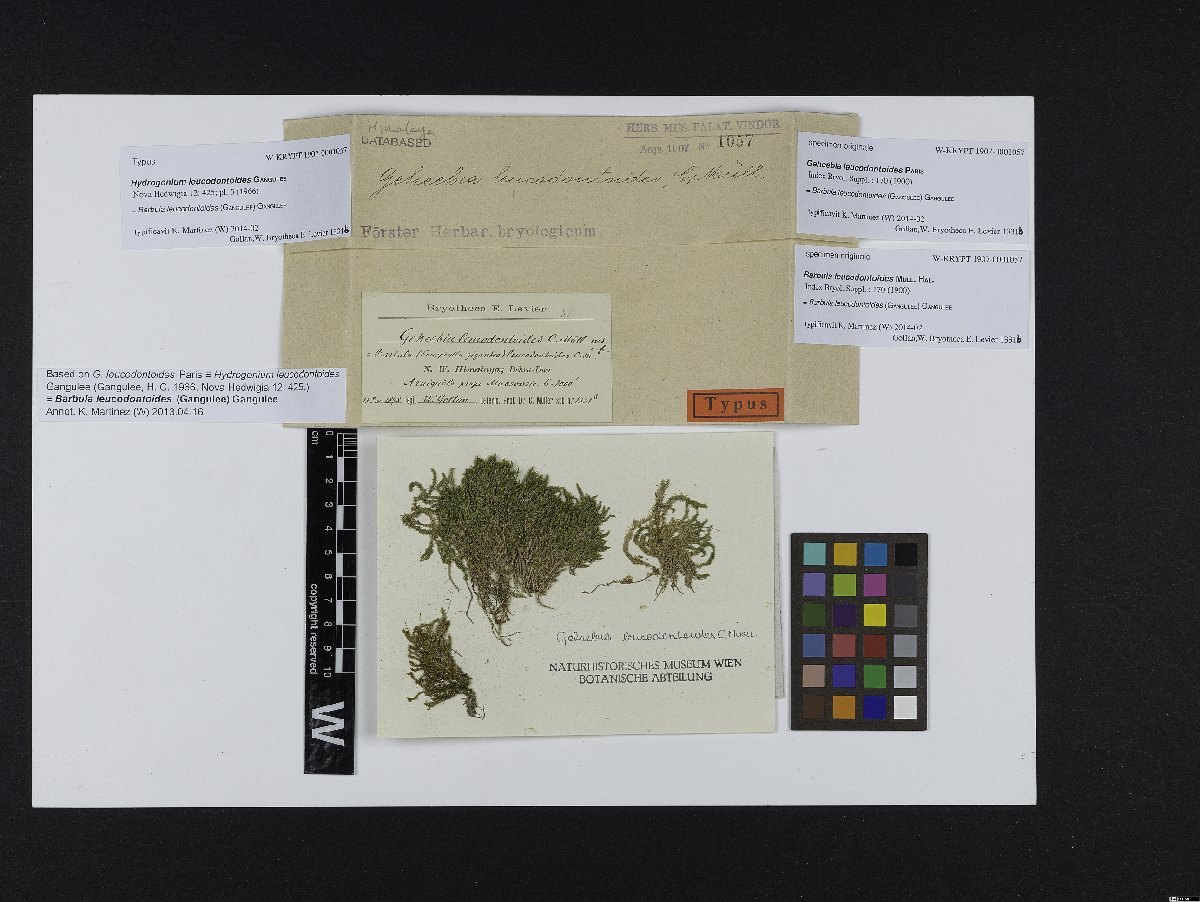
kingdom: Plantae
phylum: Bryophyta
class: Bryopsida
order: Pottiales
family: Pottiaceae
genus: Hydrogonium
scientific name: Hydrogonium leucodontoides
